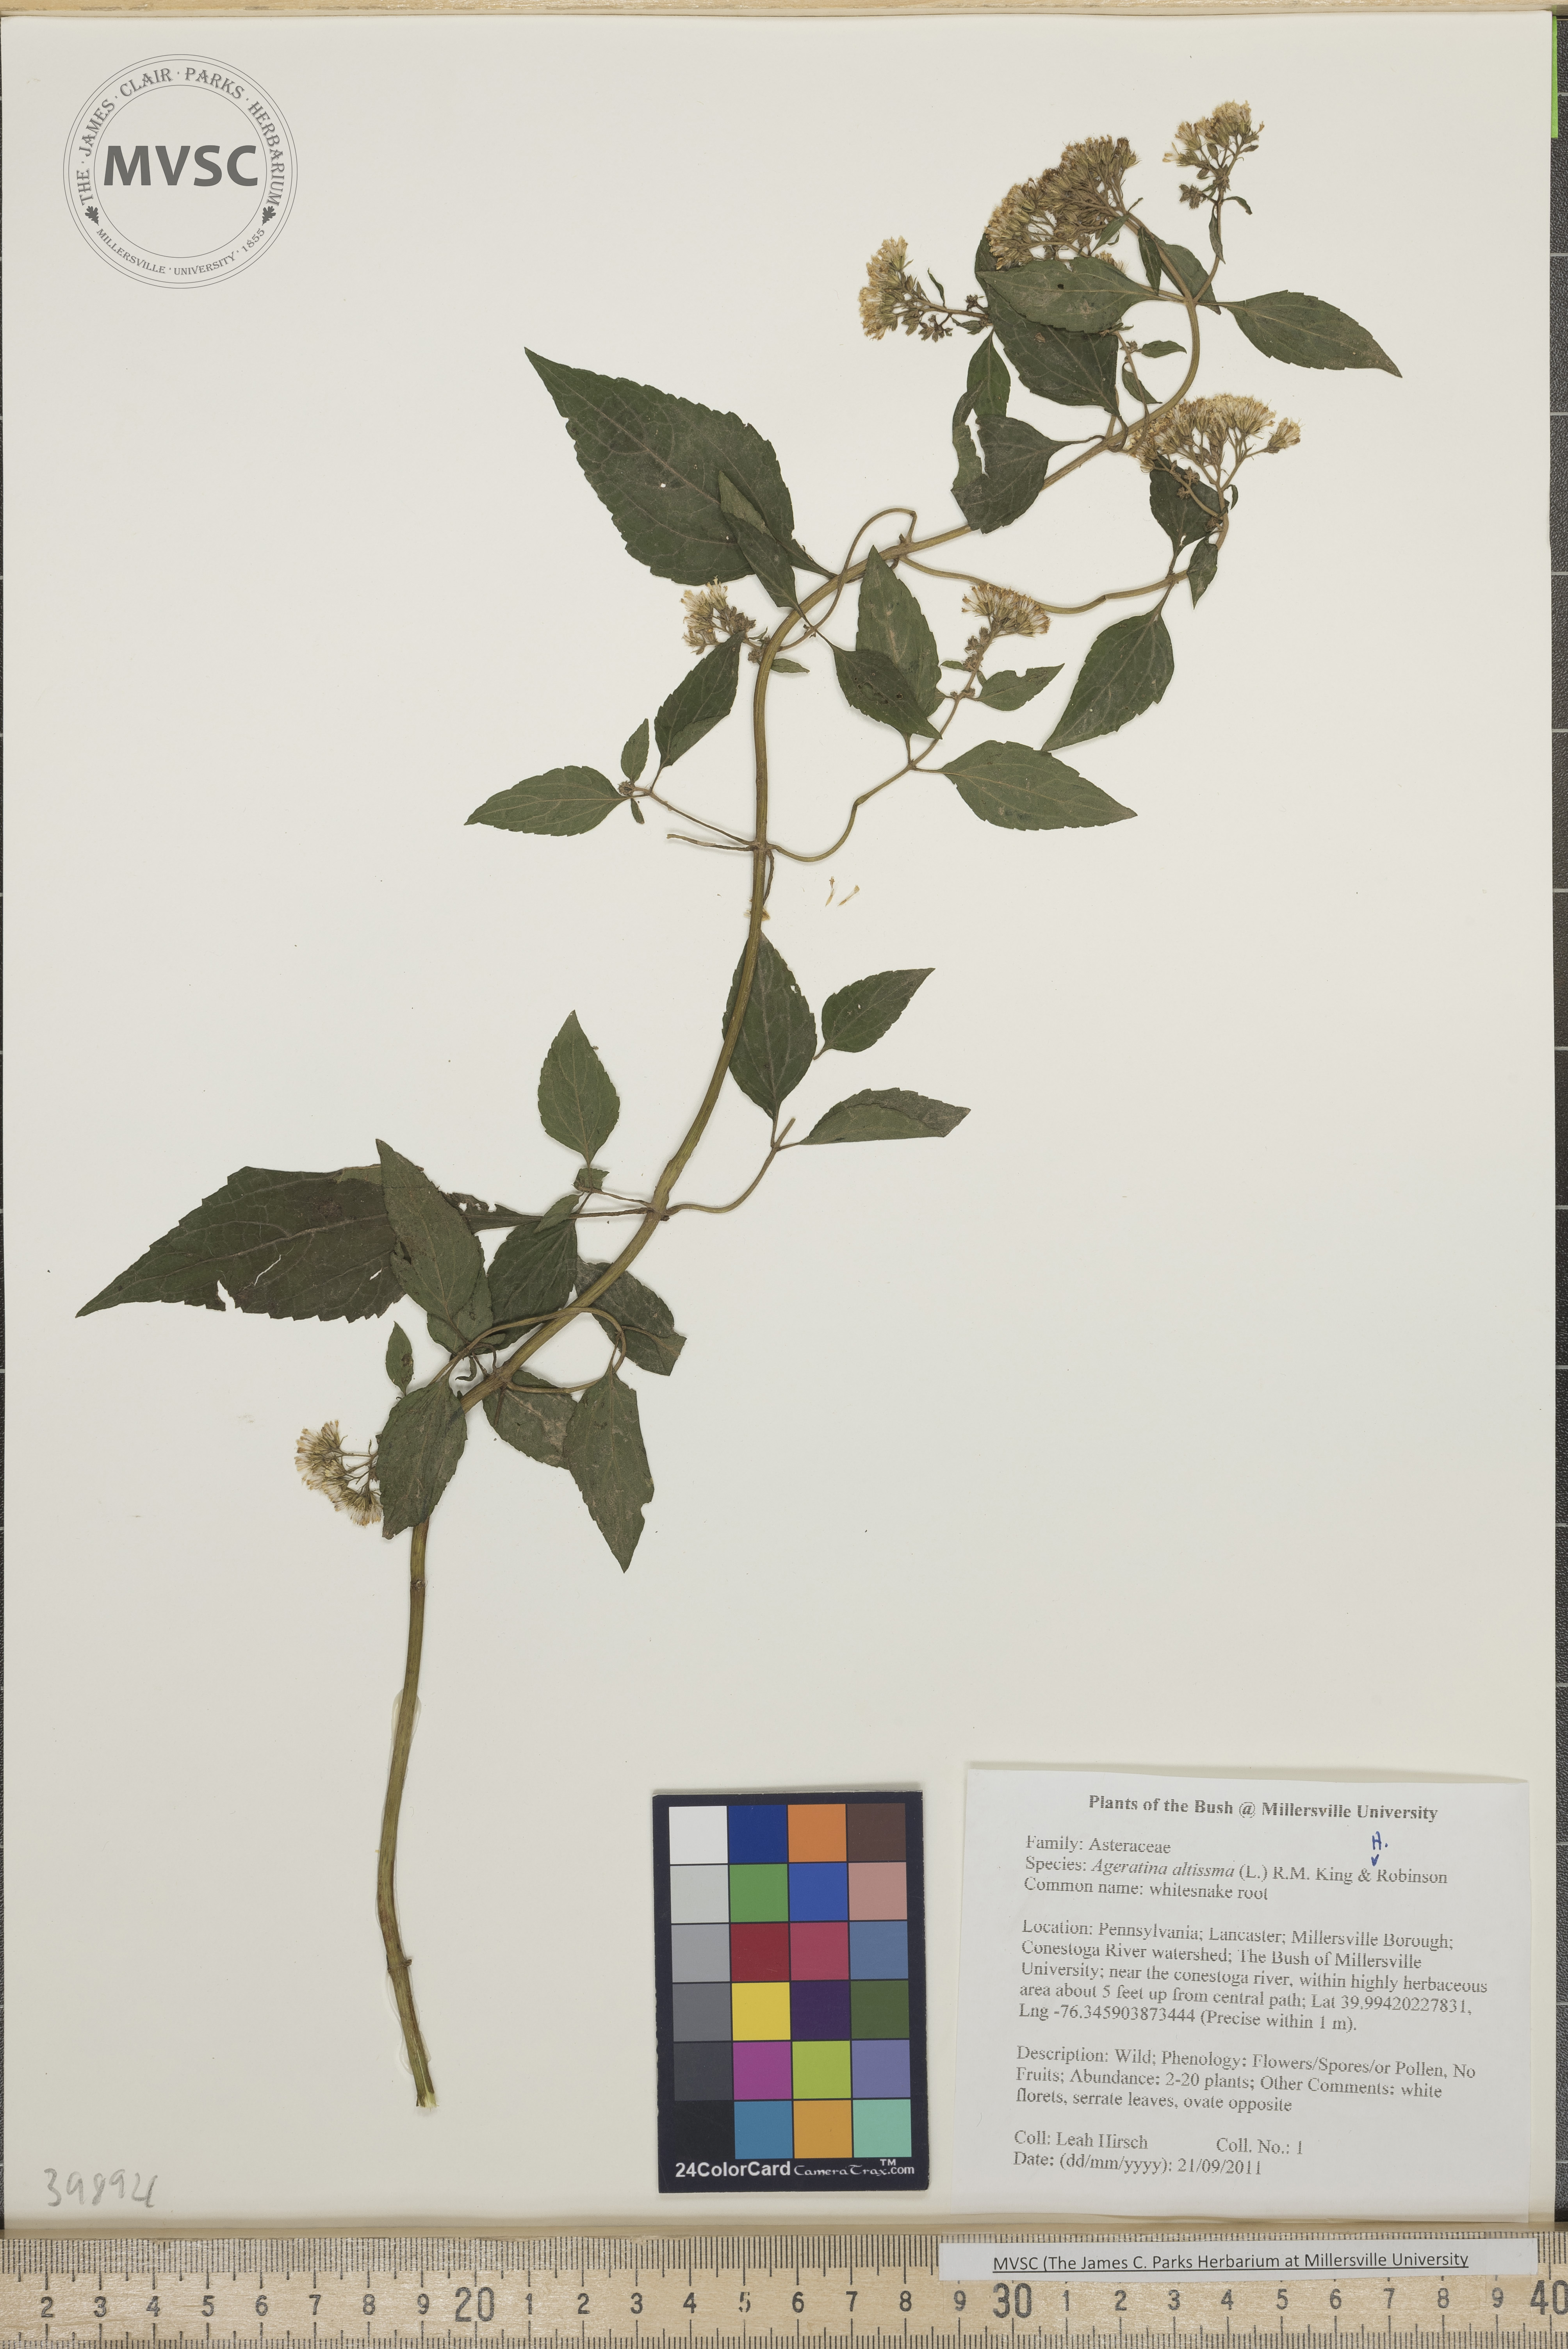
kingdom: Plantae
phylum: Tracheophyta
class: Magnoliopsida
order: Asterales
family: Asteraceae
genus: Ageratina
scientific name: Ageratina altissima
